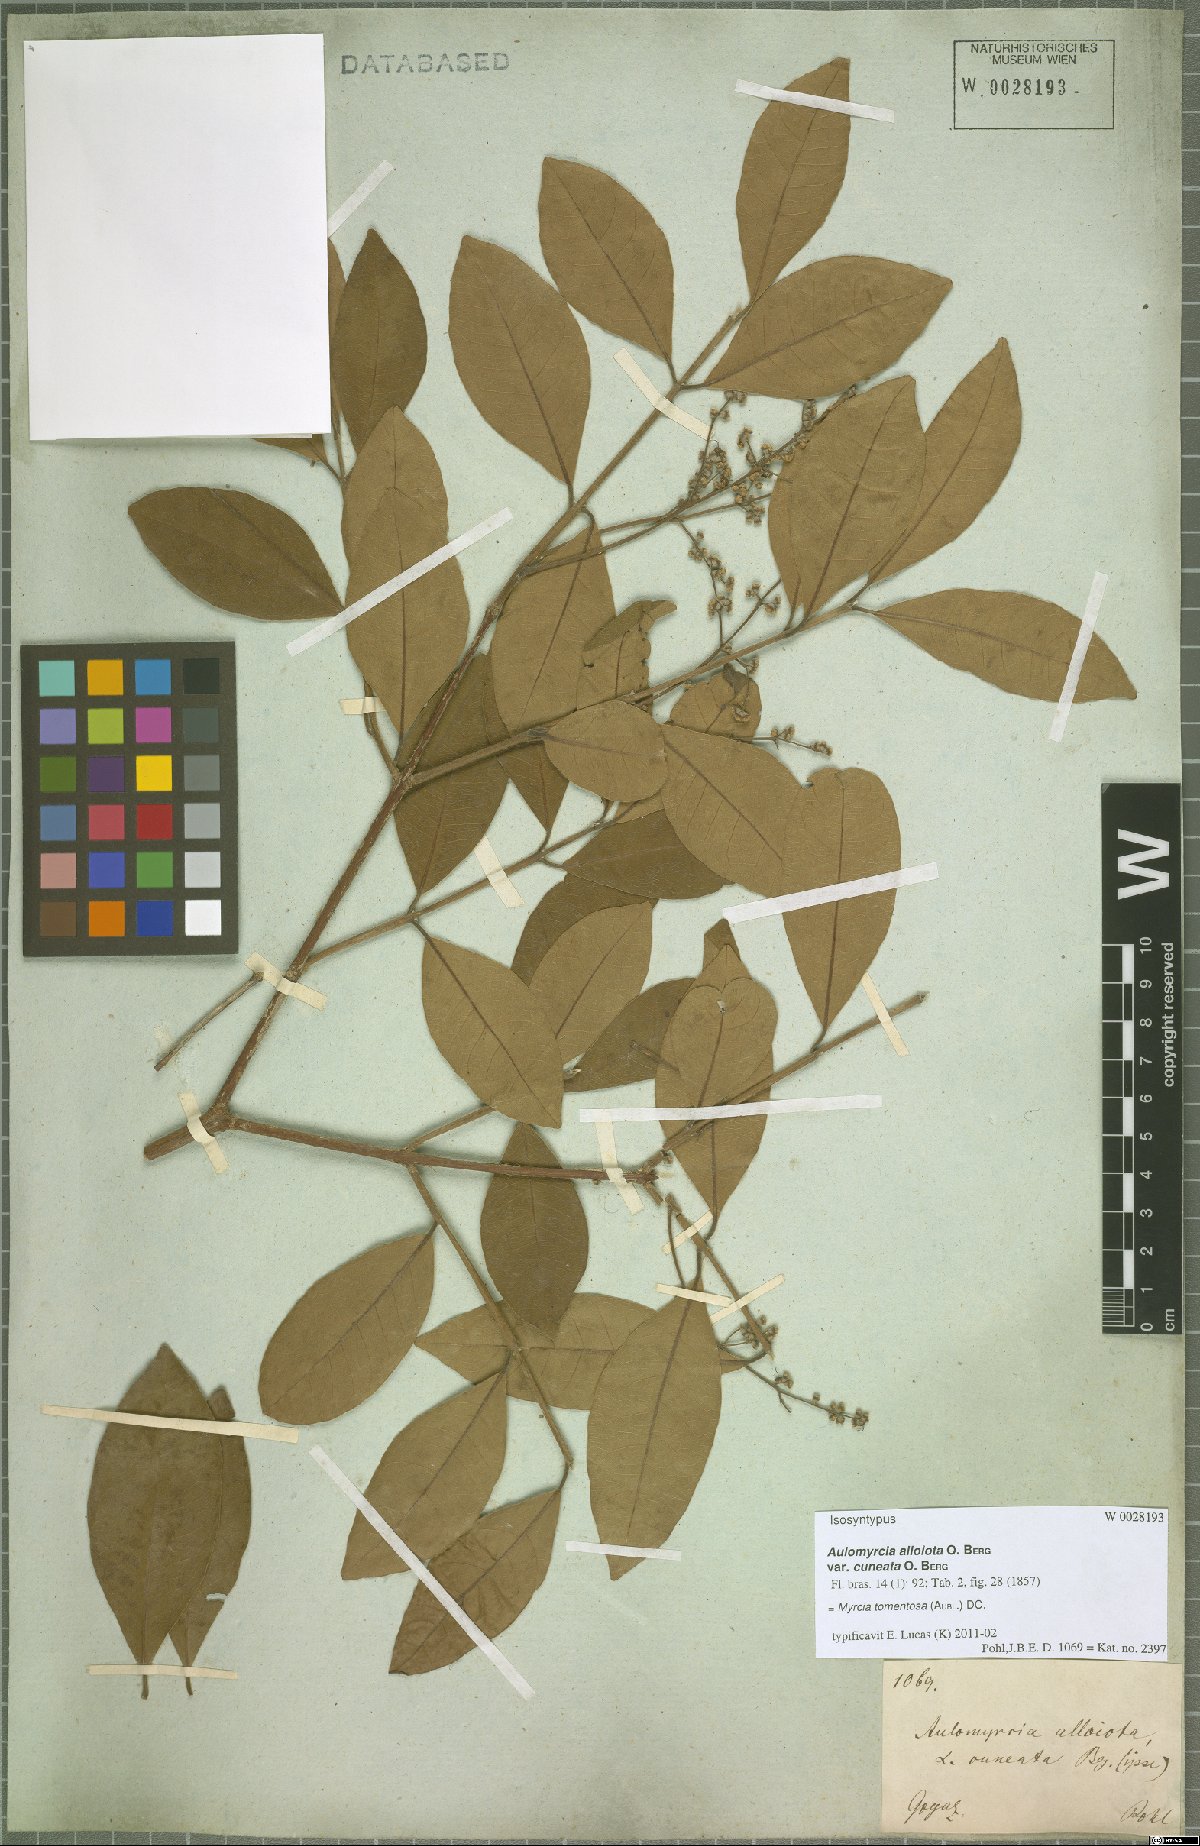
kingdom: Plantae
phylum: Tracheophyta
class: Magnoliopsida
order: Myrtales
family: Myrtaceae
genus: Myrcia
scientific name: Myrcia tomentosa
